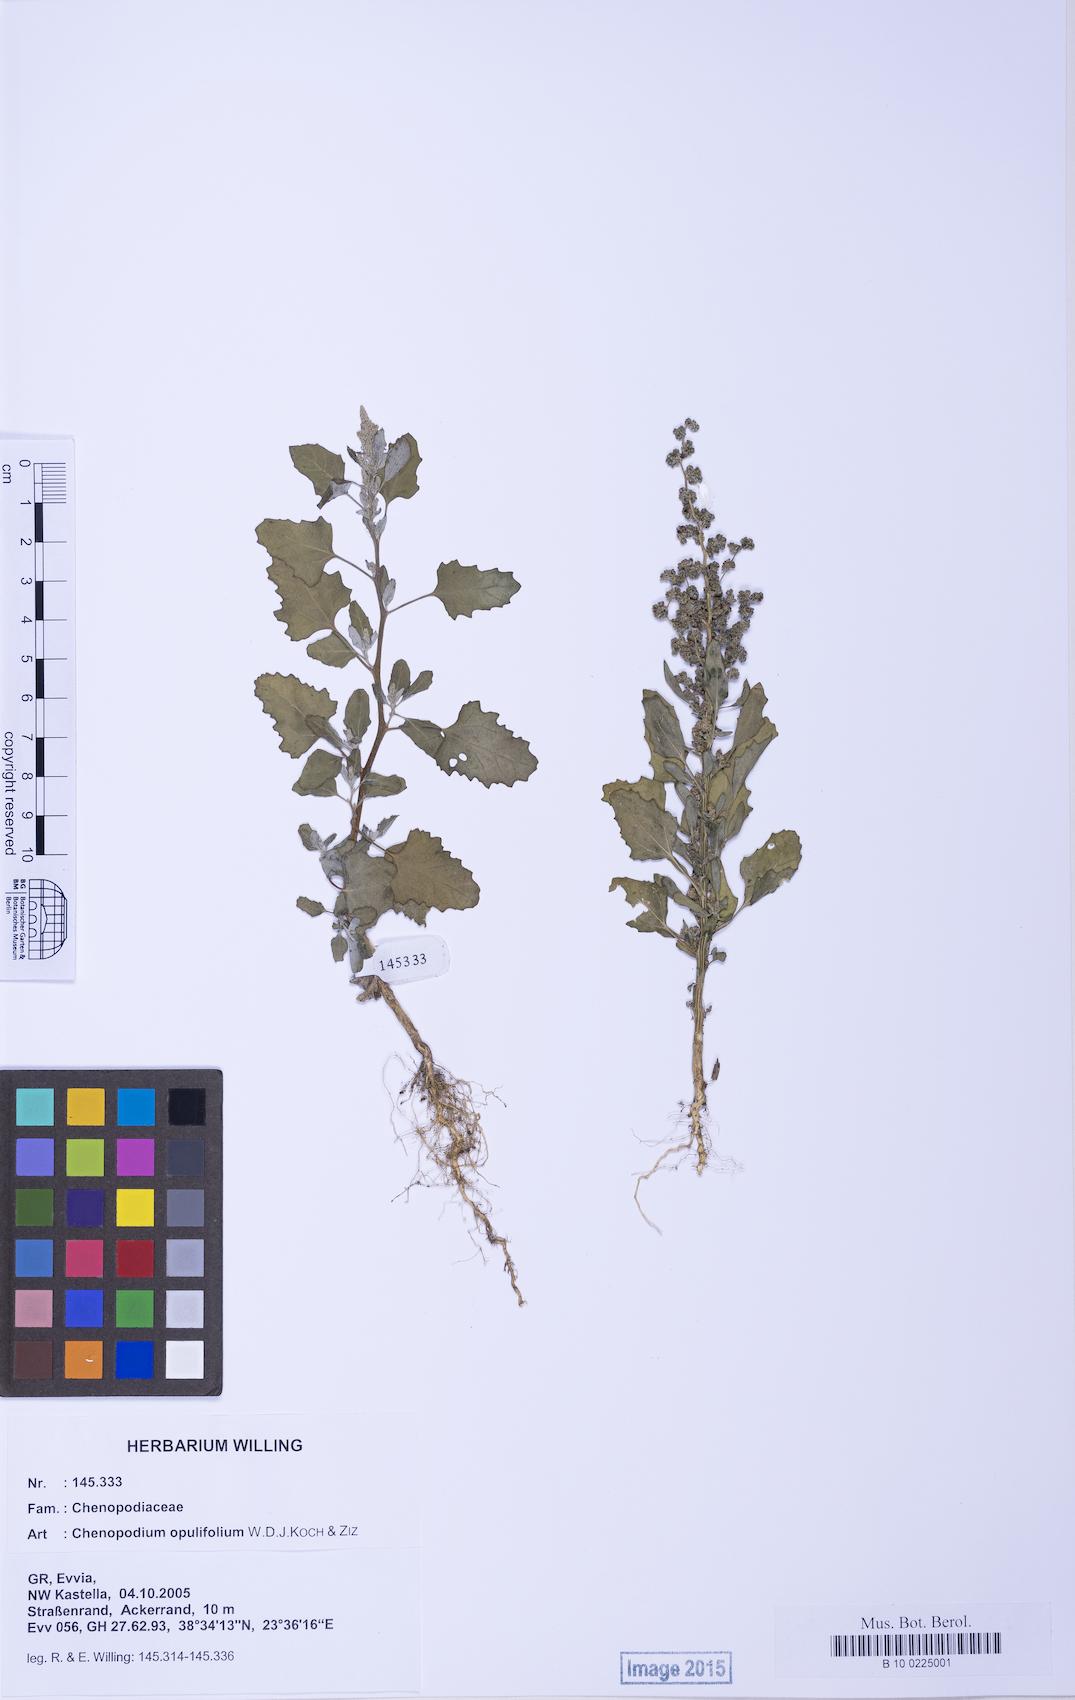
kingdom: Plantae
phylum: Tracheophyta
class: Magnoliopsida
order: Caryophyllales
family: Amaranthaceae
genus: Chenopodium
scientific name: Chenopodium album
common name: Fat-hen
